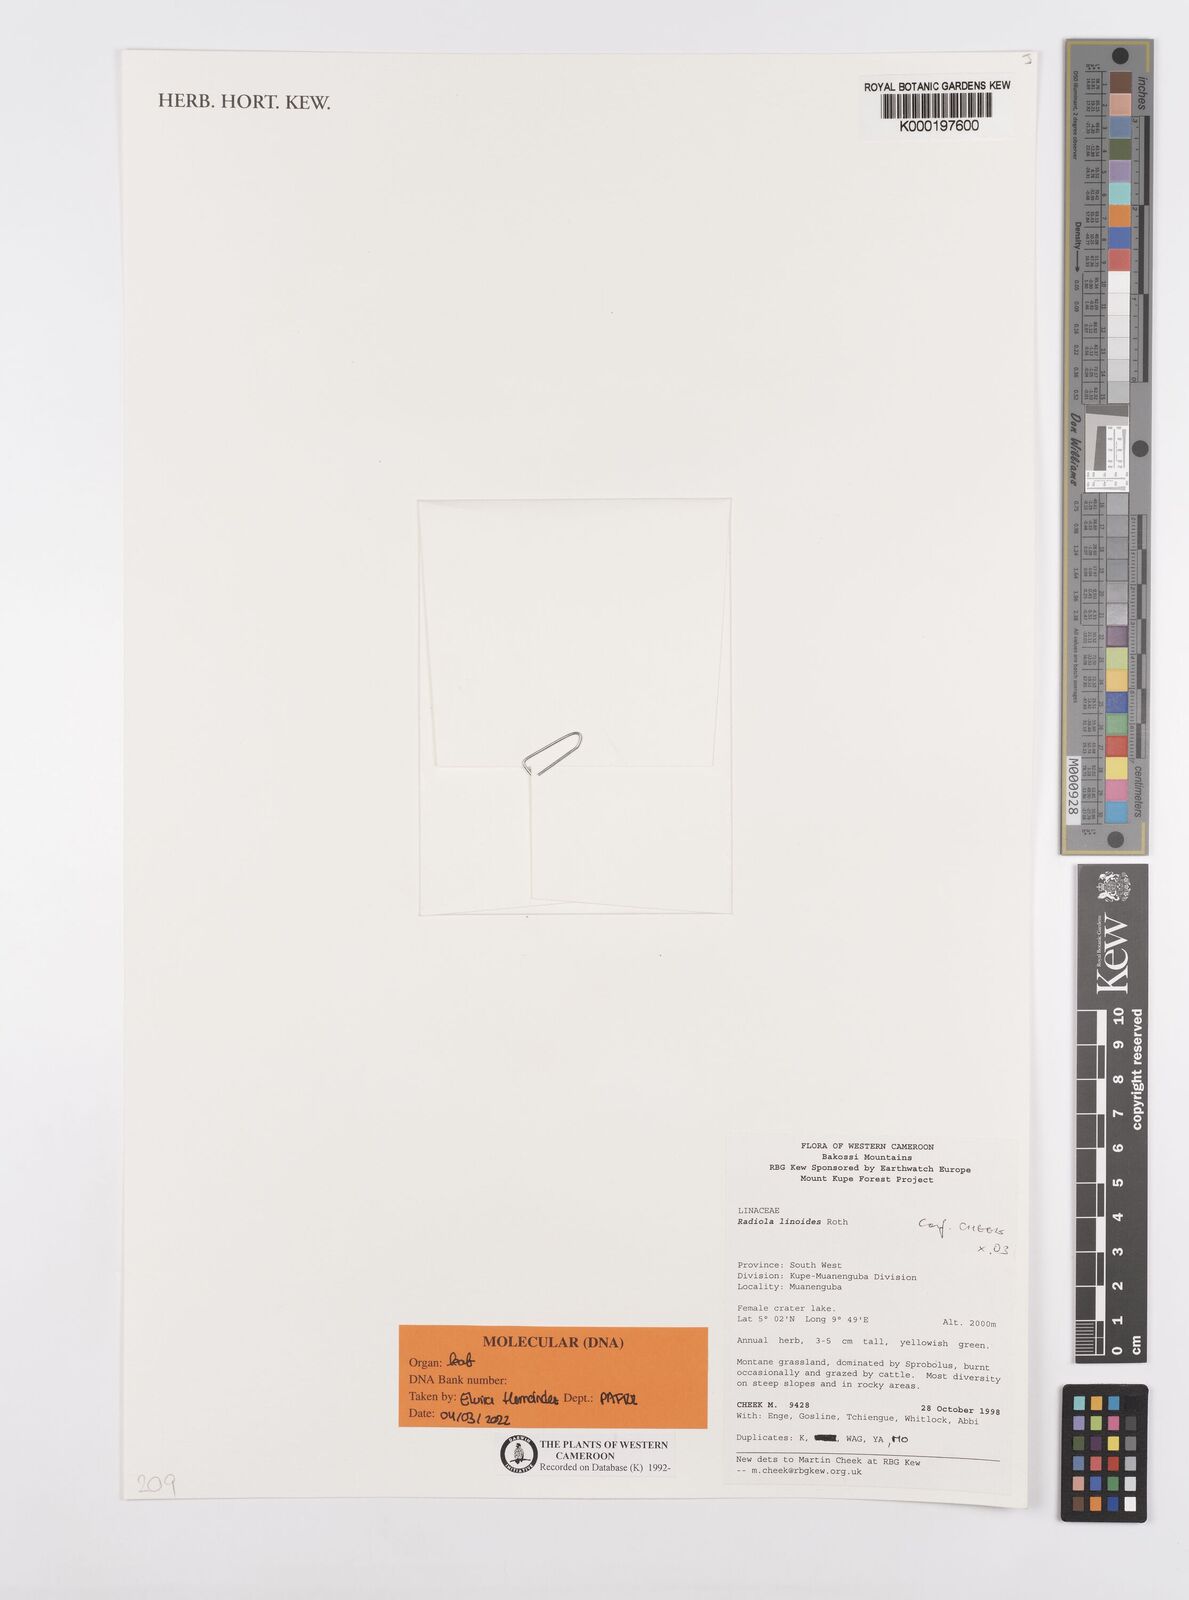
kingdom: Plantae
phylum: Tracheophyta
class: Magnoliopsida
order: Malpighiales
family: Linaceae
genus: Radiola
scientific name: Radiola linoides
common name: Allseed
